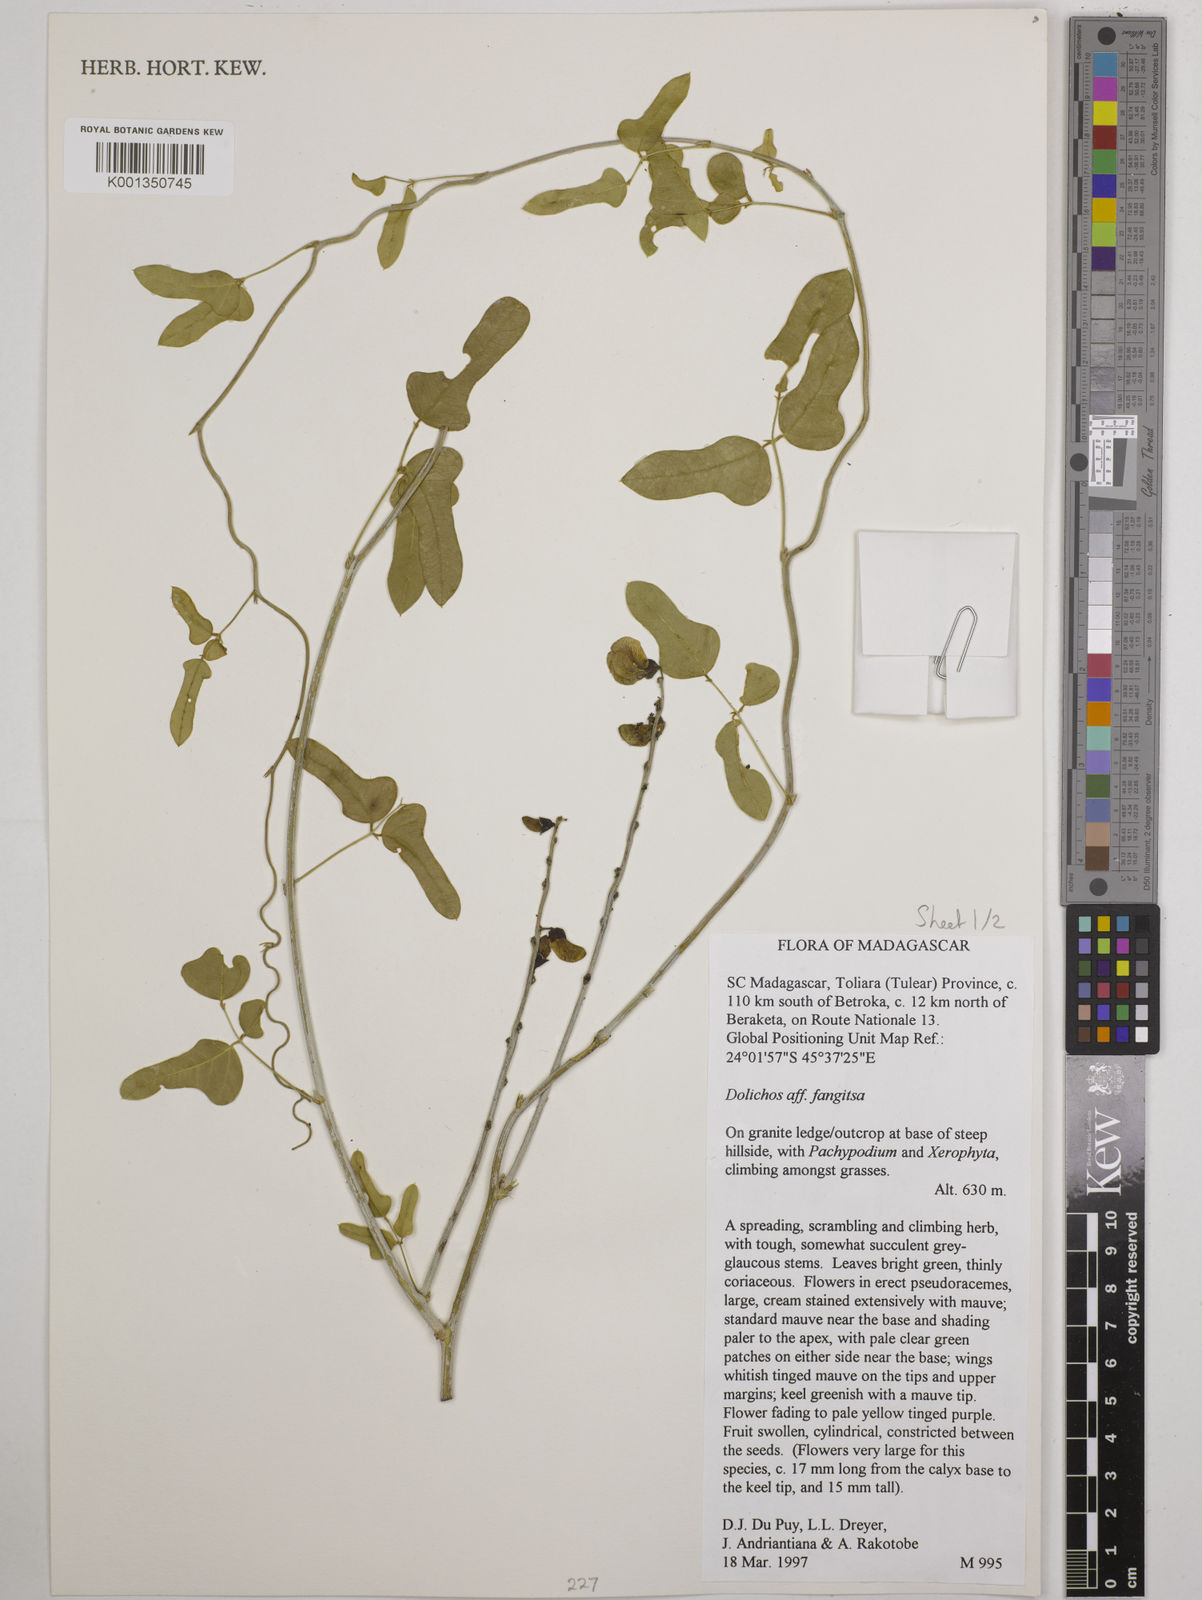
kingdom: Plantae
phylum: Tracheophyta
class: Magnoliopsida
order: Fabales
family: Fabaceae
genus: Dolichos
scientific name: Dolichos fangitsa
